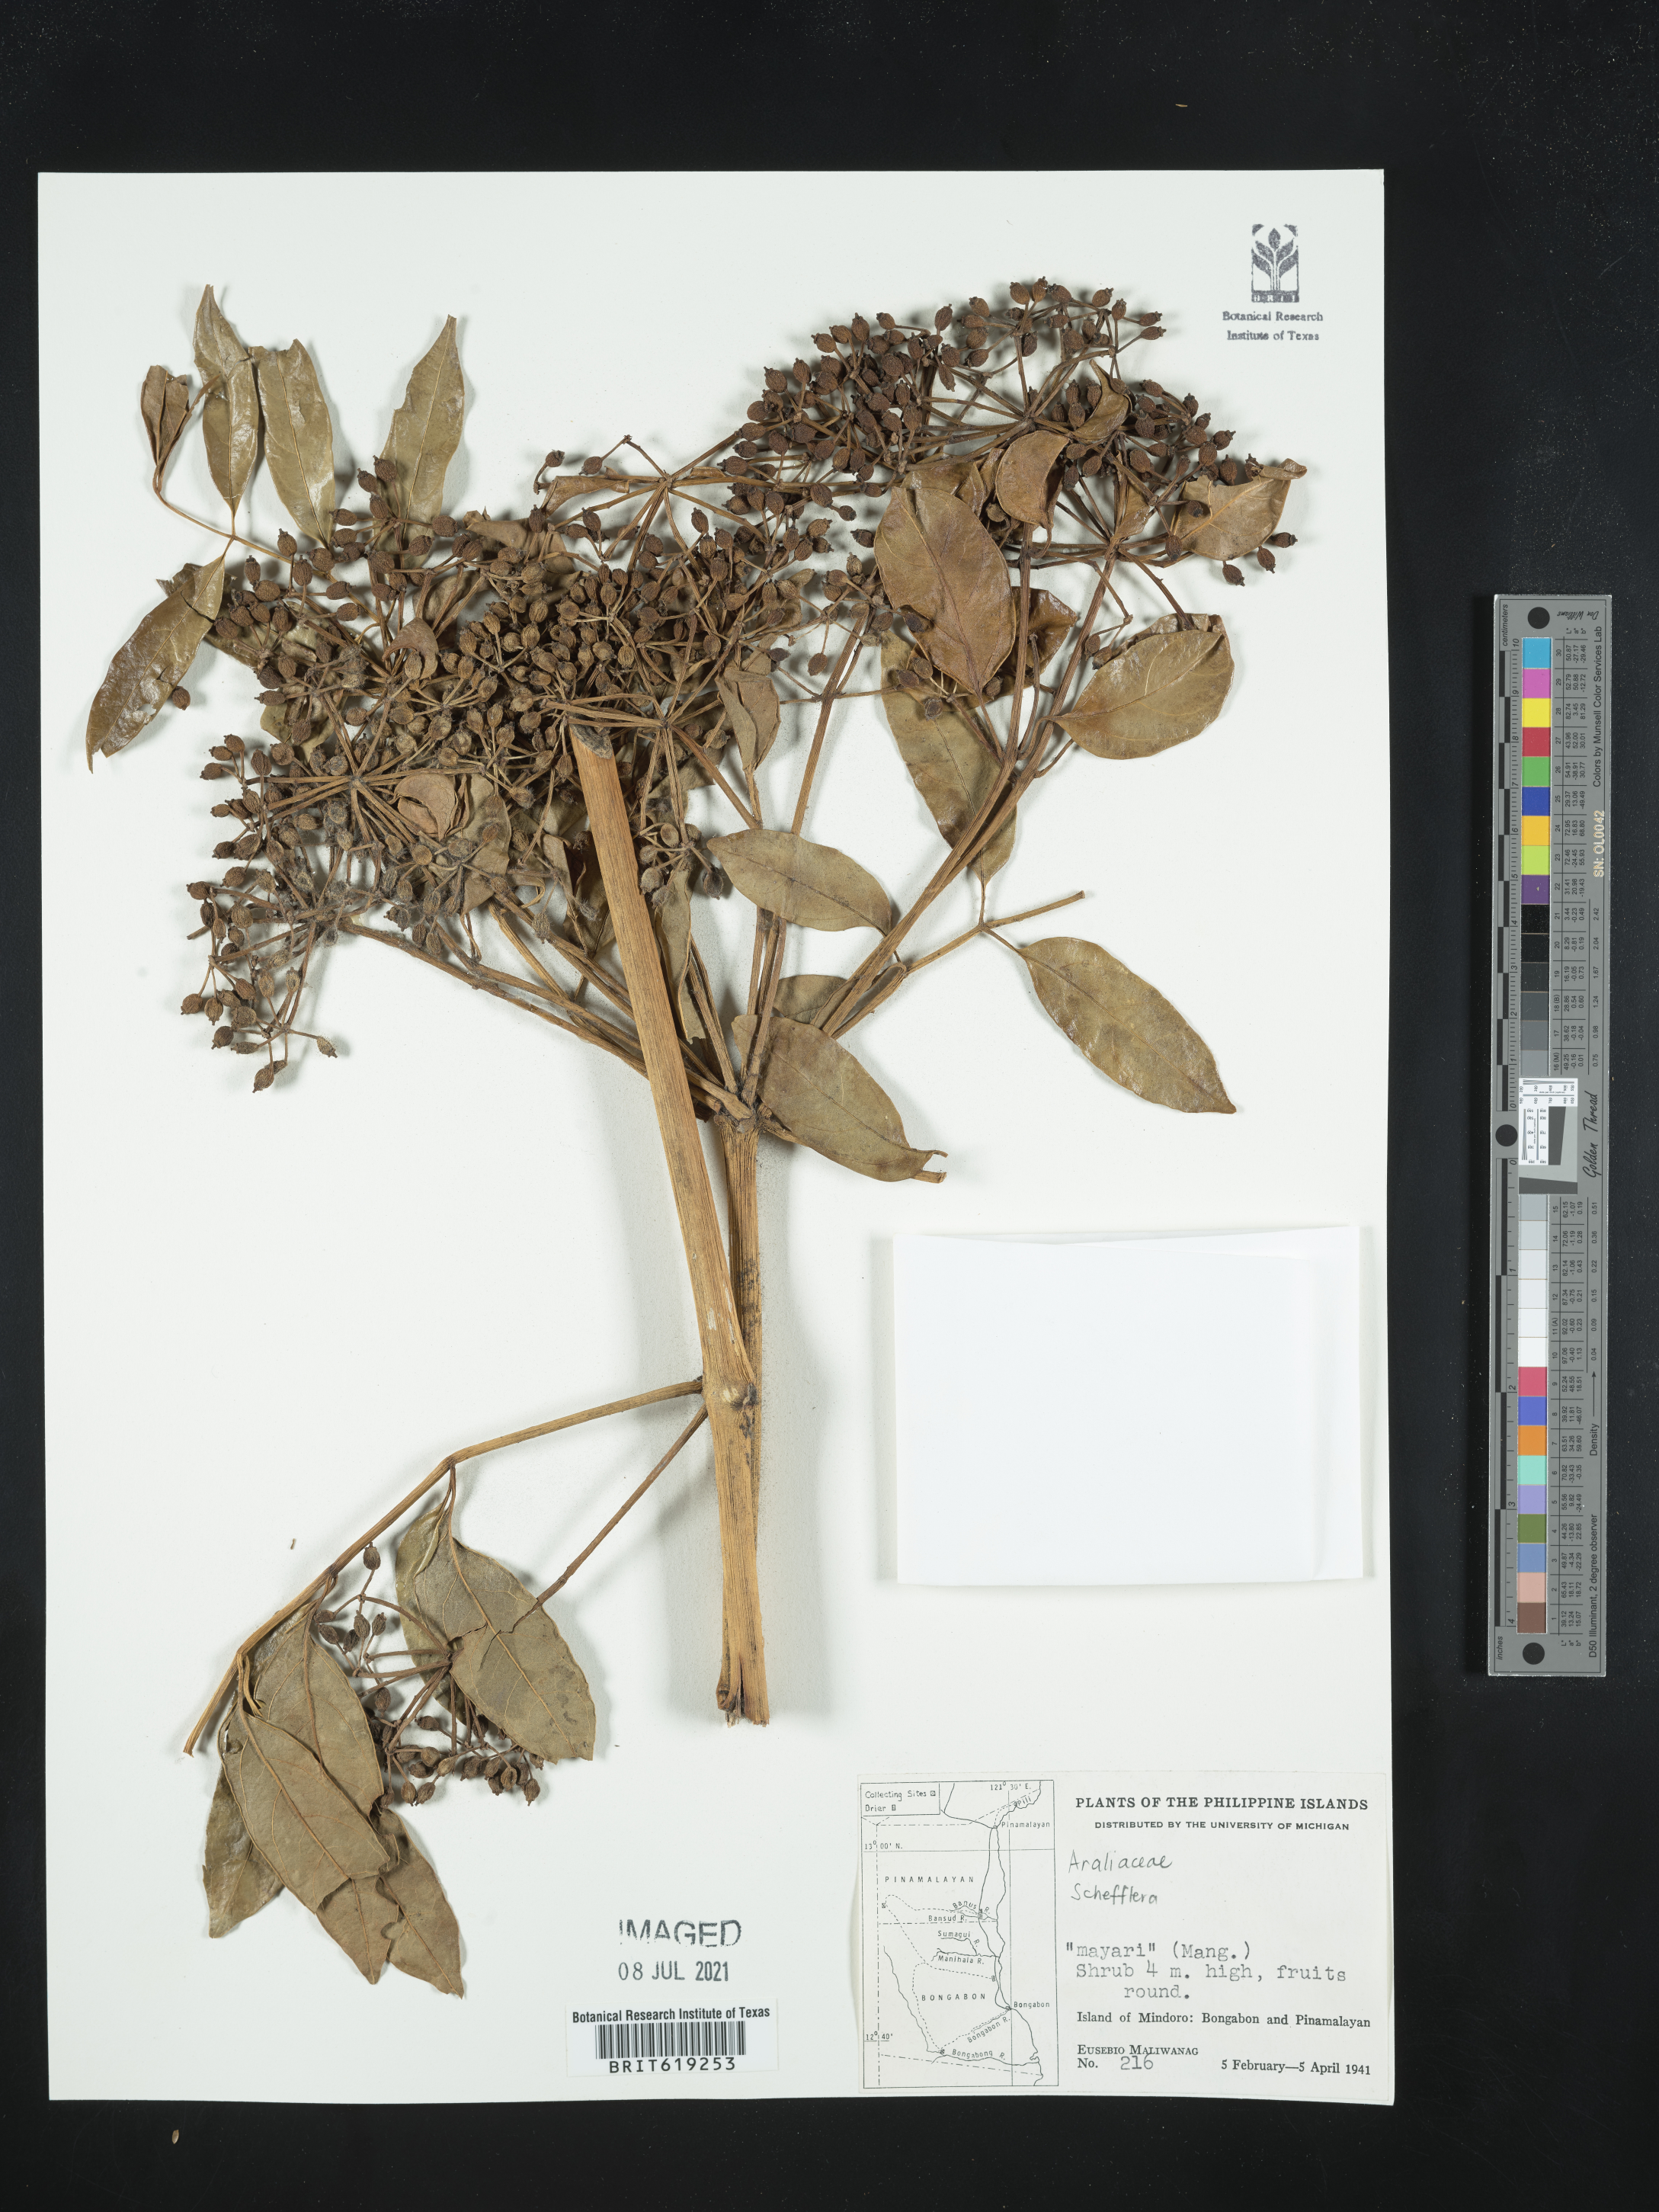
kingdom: Plantae
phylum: Tracheophyta
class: Magnoliopsida
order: Apiales
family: Araliaceae
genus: Schefflera
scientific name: Schefflera
